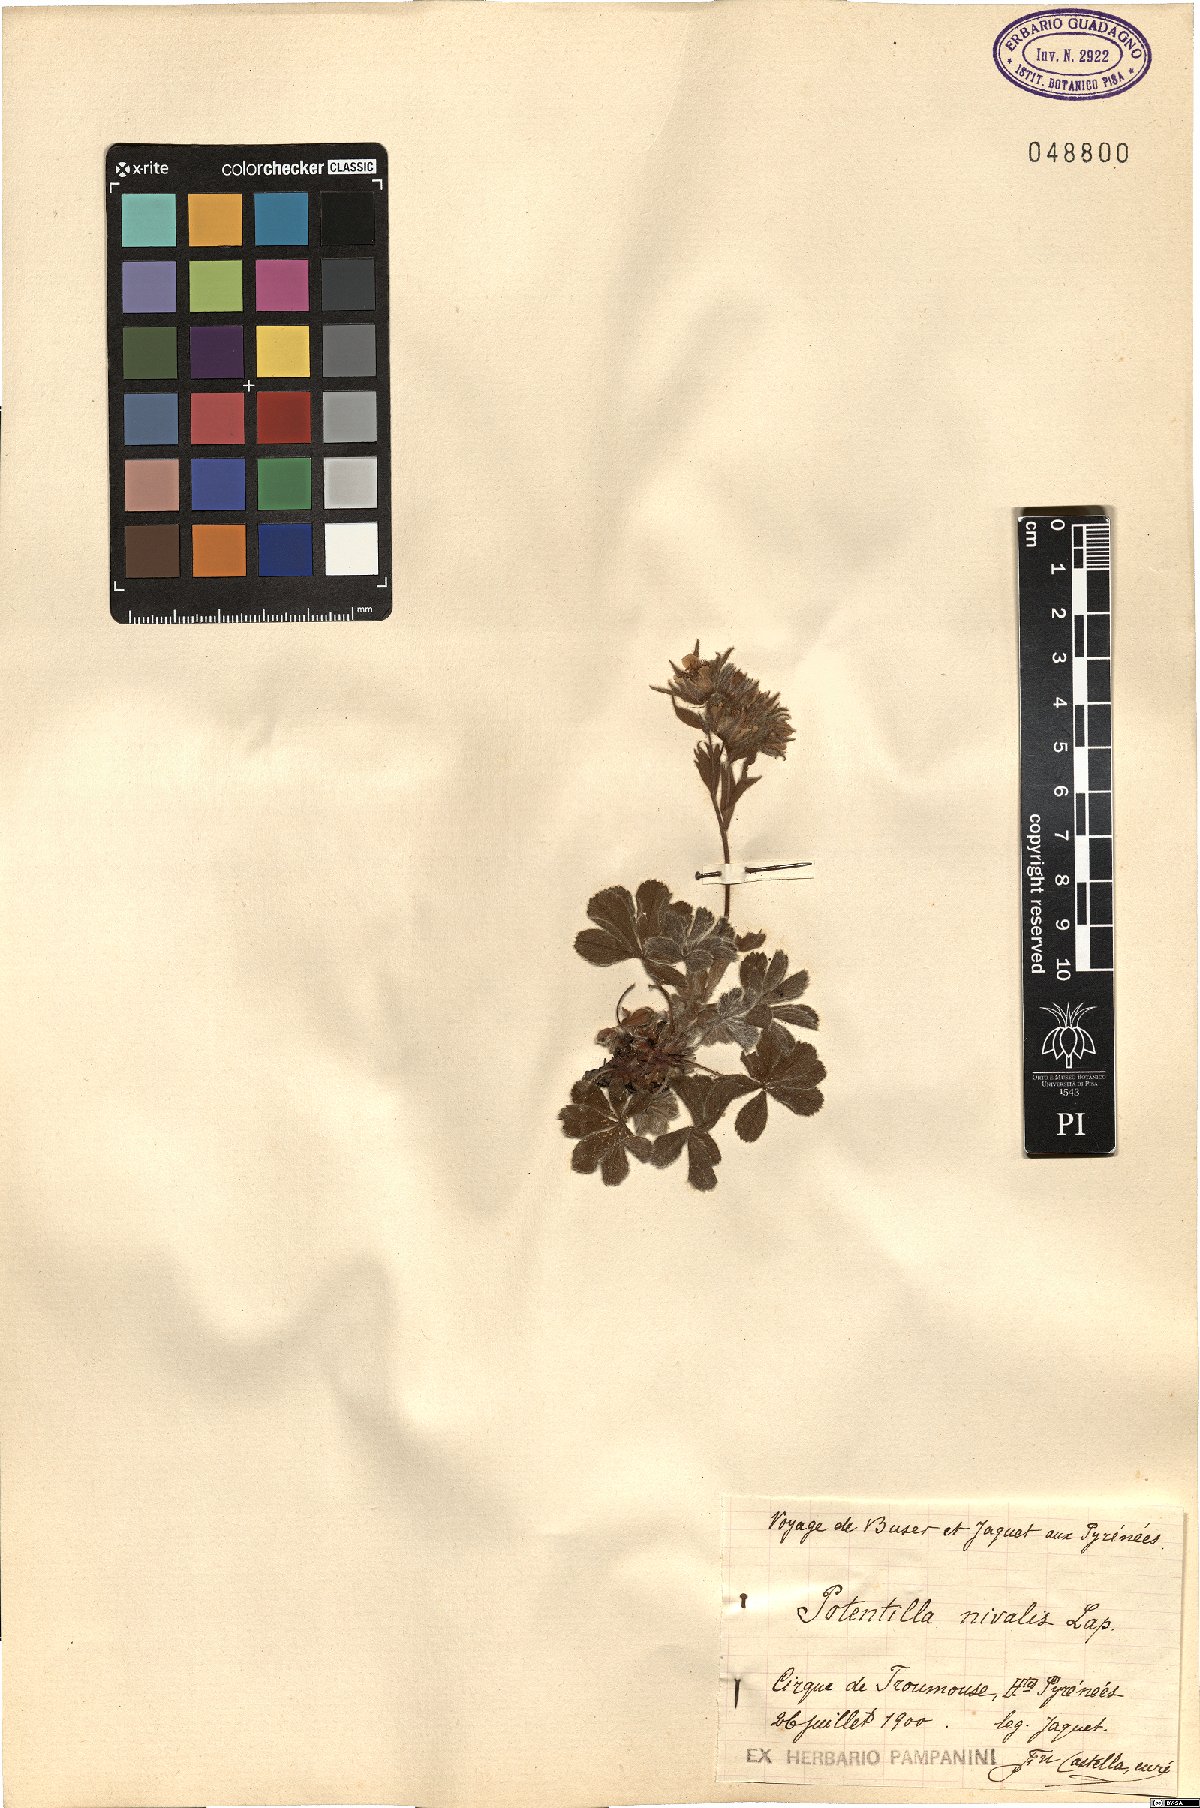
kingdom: Plantae
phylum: Tracheophyta
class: Magnoliopsida
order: Rosales
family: Rosaceae
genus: Potentilla
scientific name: Potentilla nivalis
